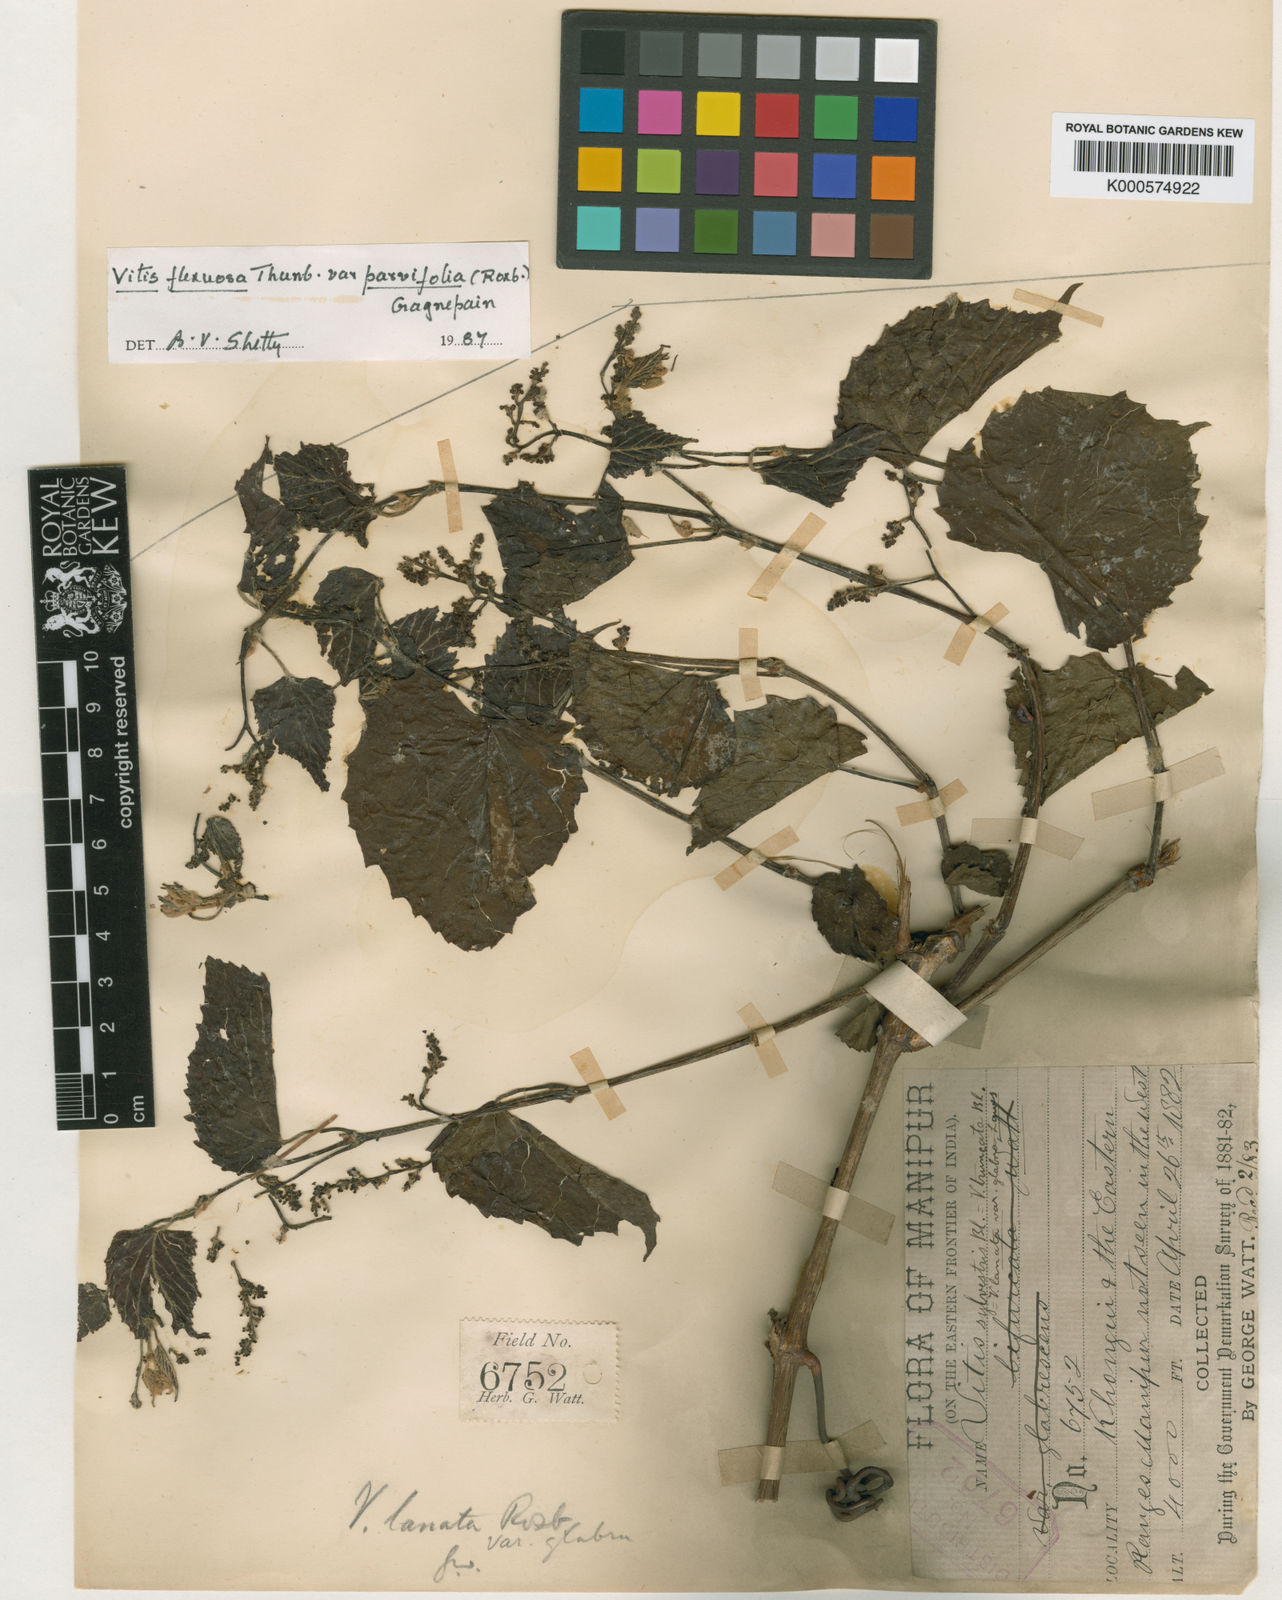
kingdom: Plantae
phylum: Tracheophyta
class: Magnoliopsida
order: Vitales
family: Vitaceae
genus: Vitis
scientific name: Vitis flexuosa
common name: Creeping grape
